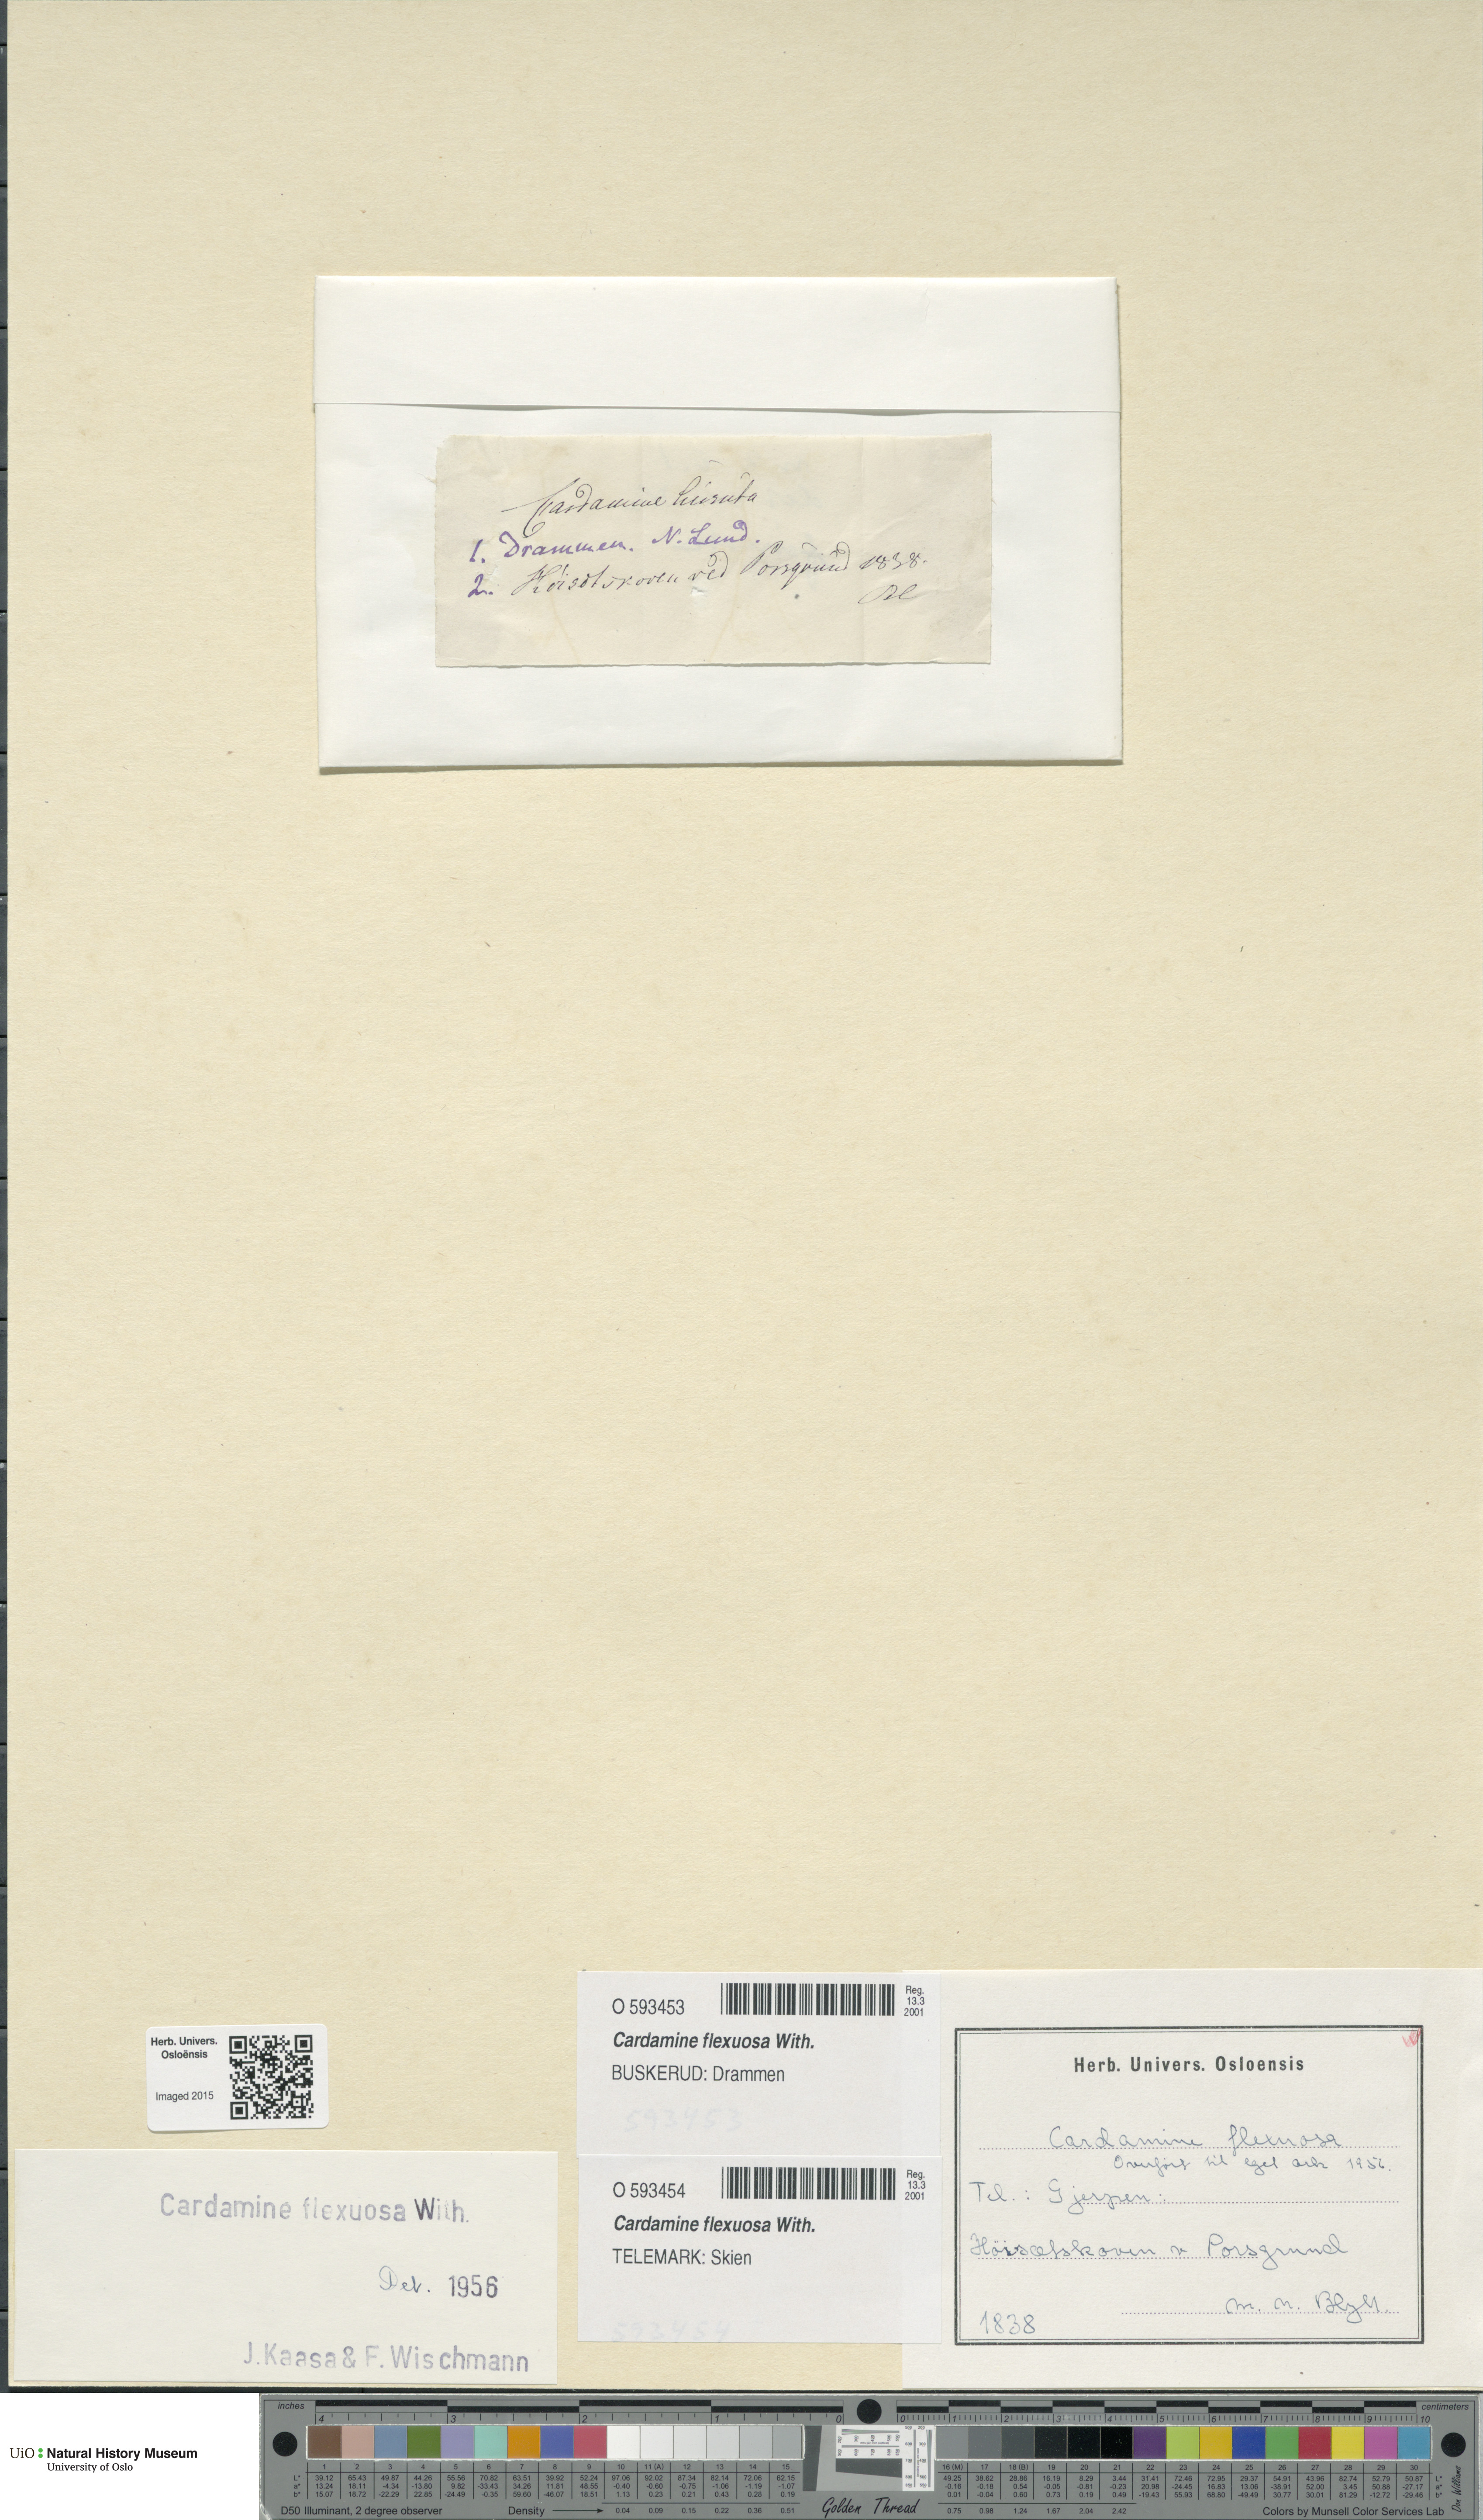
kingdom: Plantae
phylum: Tracheophyta
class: Magnoliopsida
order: Brassicales
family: Brassicaceae
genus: Cardamine
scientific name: Cardamine flexuosa
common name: Woodland bittercress
